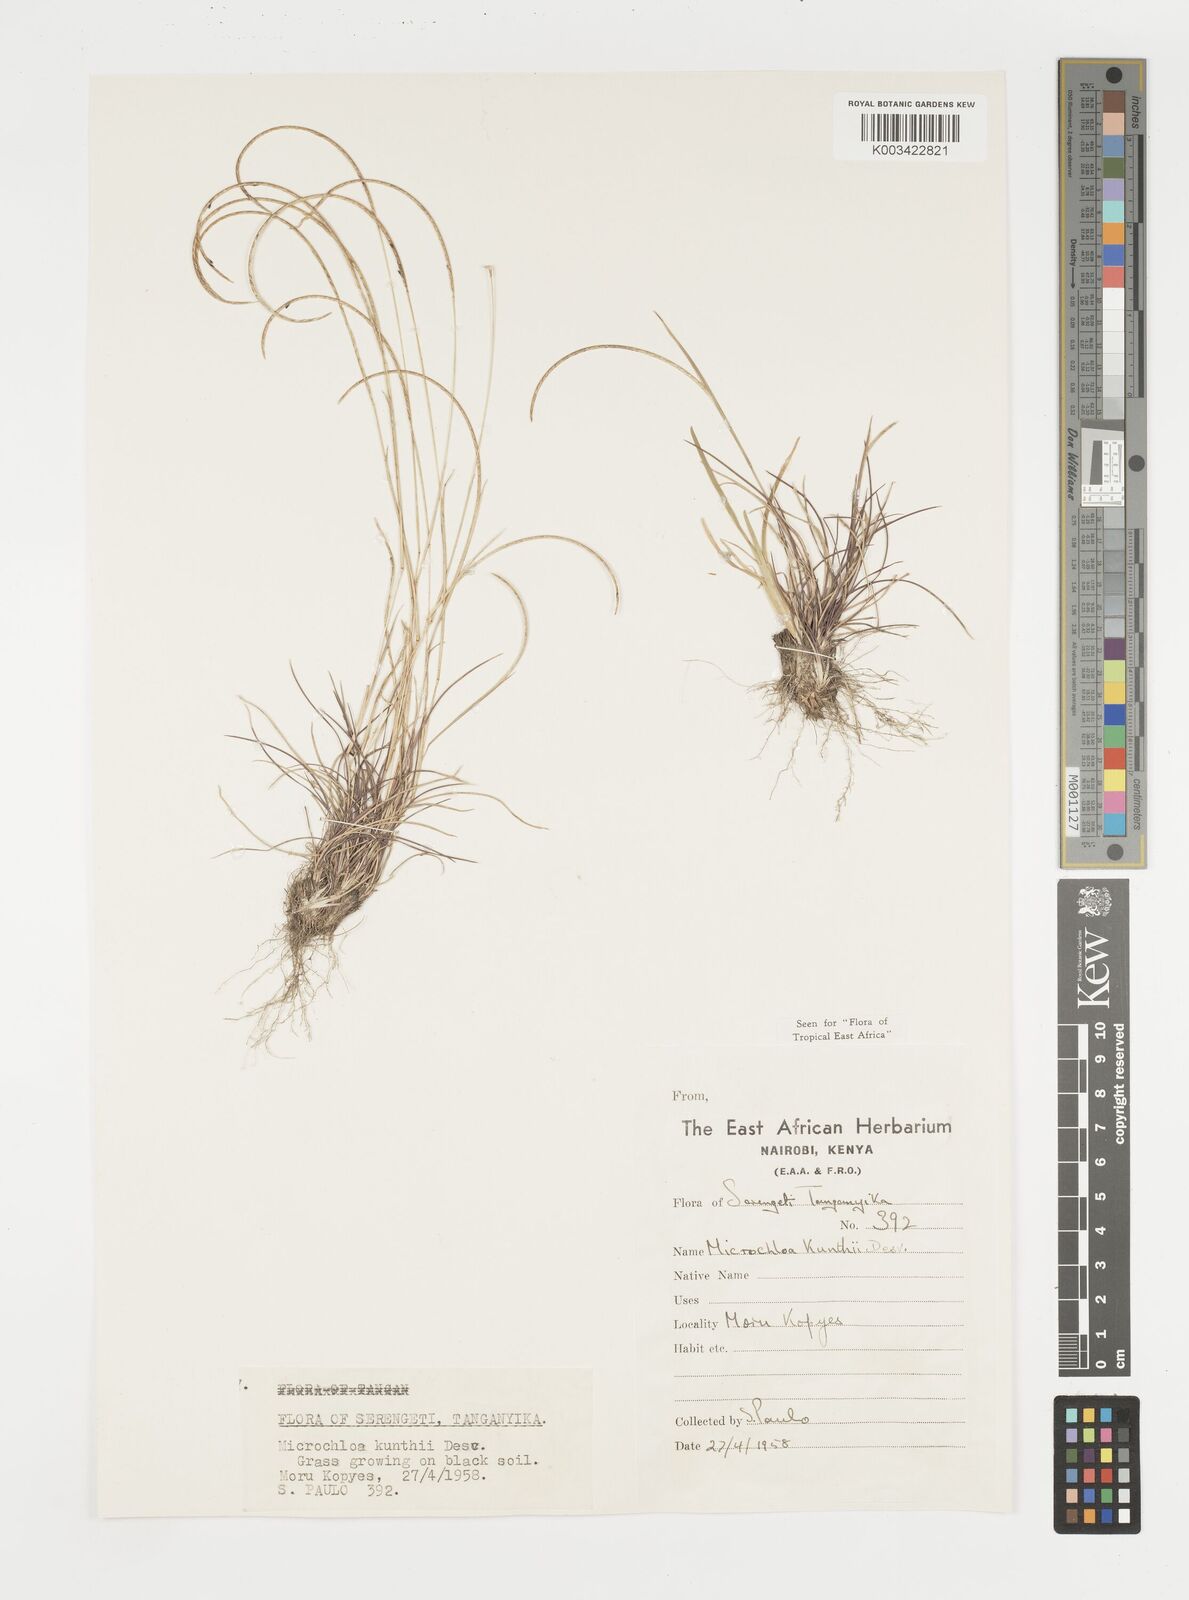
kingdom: Plantae
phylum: Tracheophyta
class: Liliopsida
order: Poales
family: Poaceae
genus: Microchloa
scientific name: Microchloa kunthii
